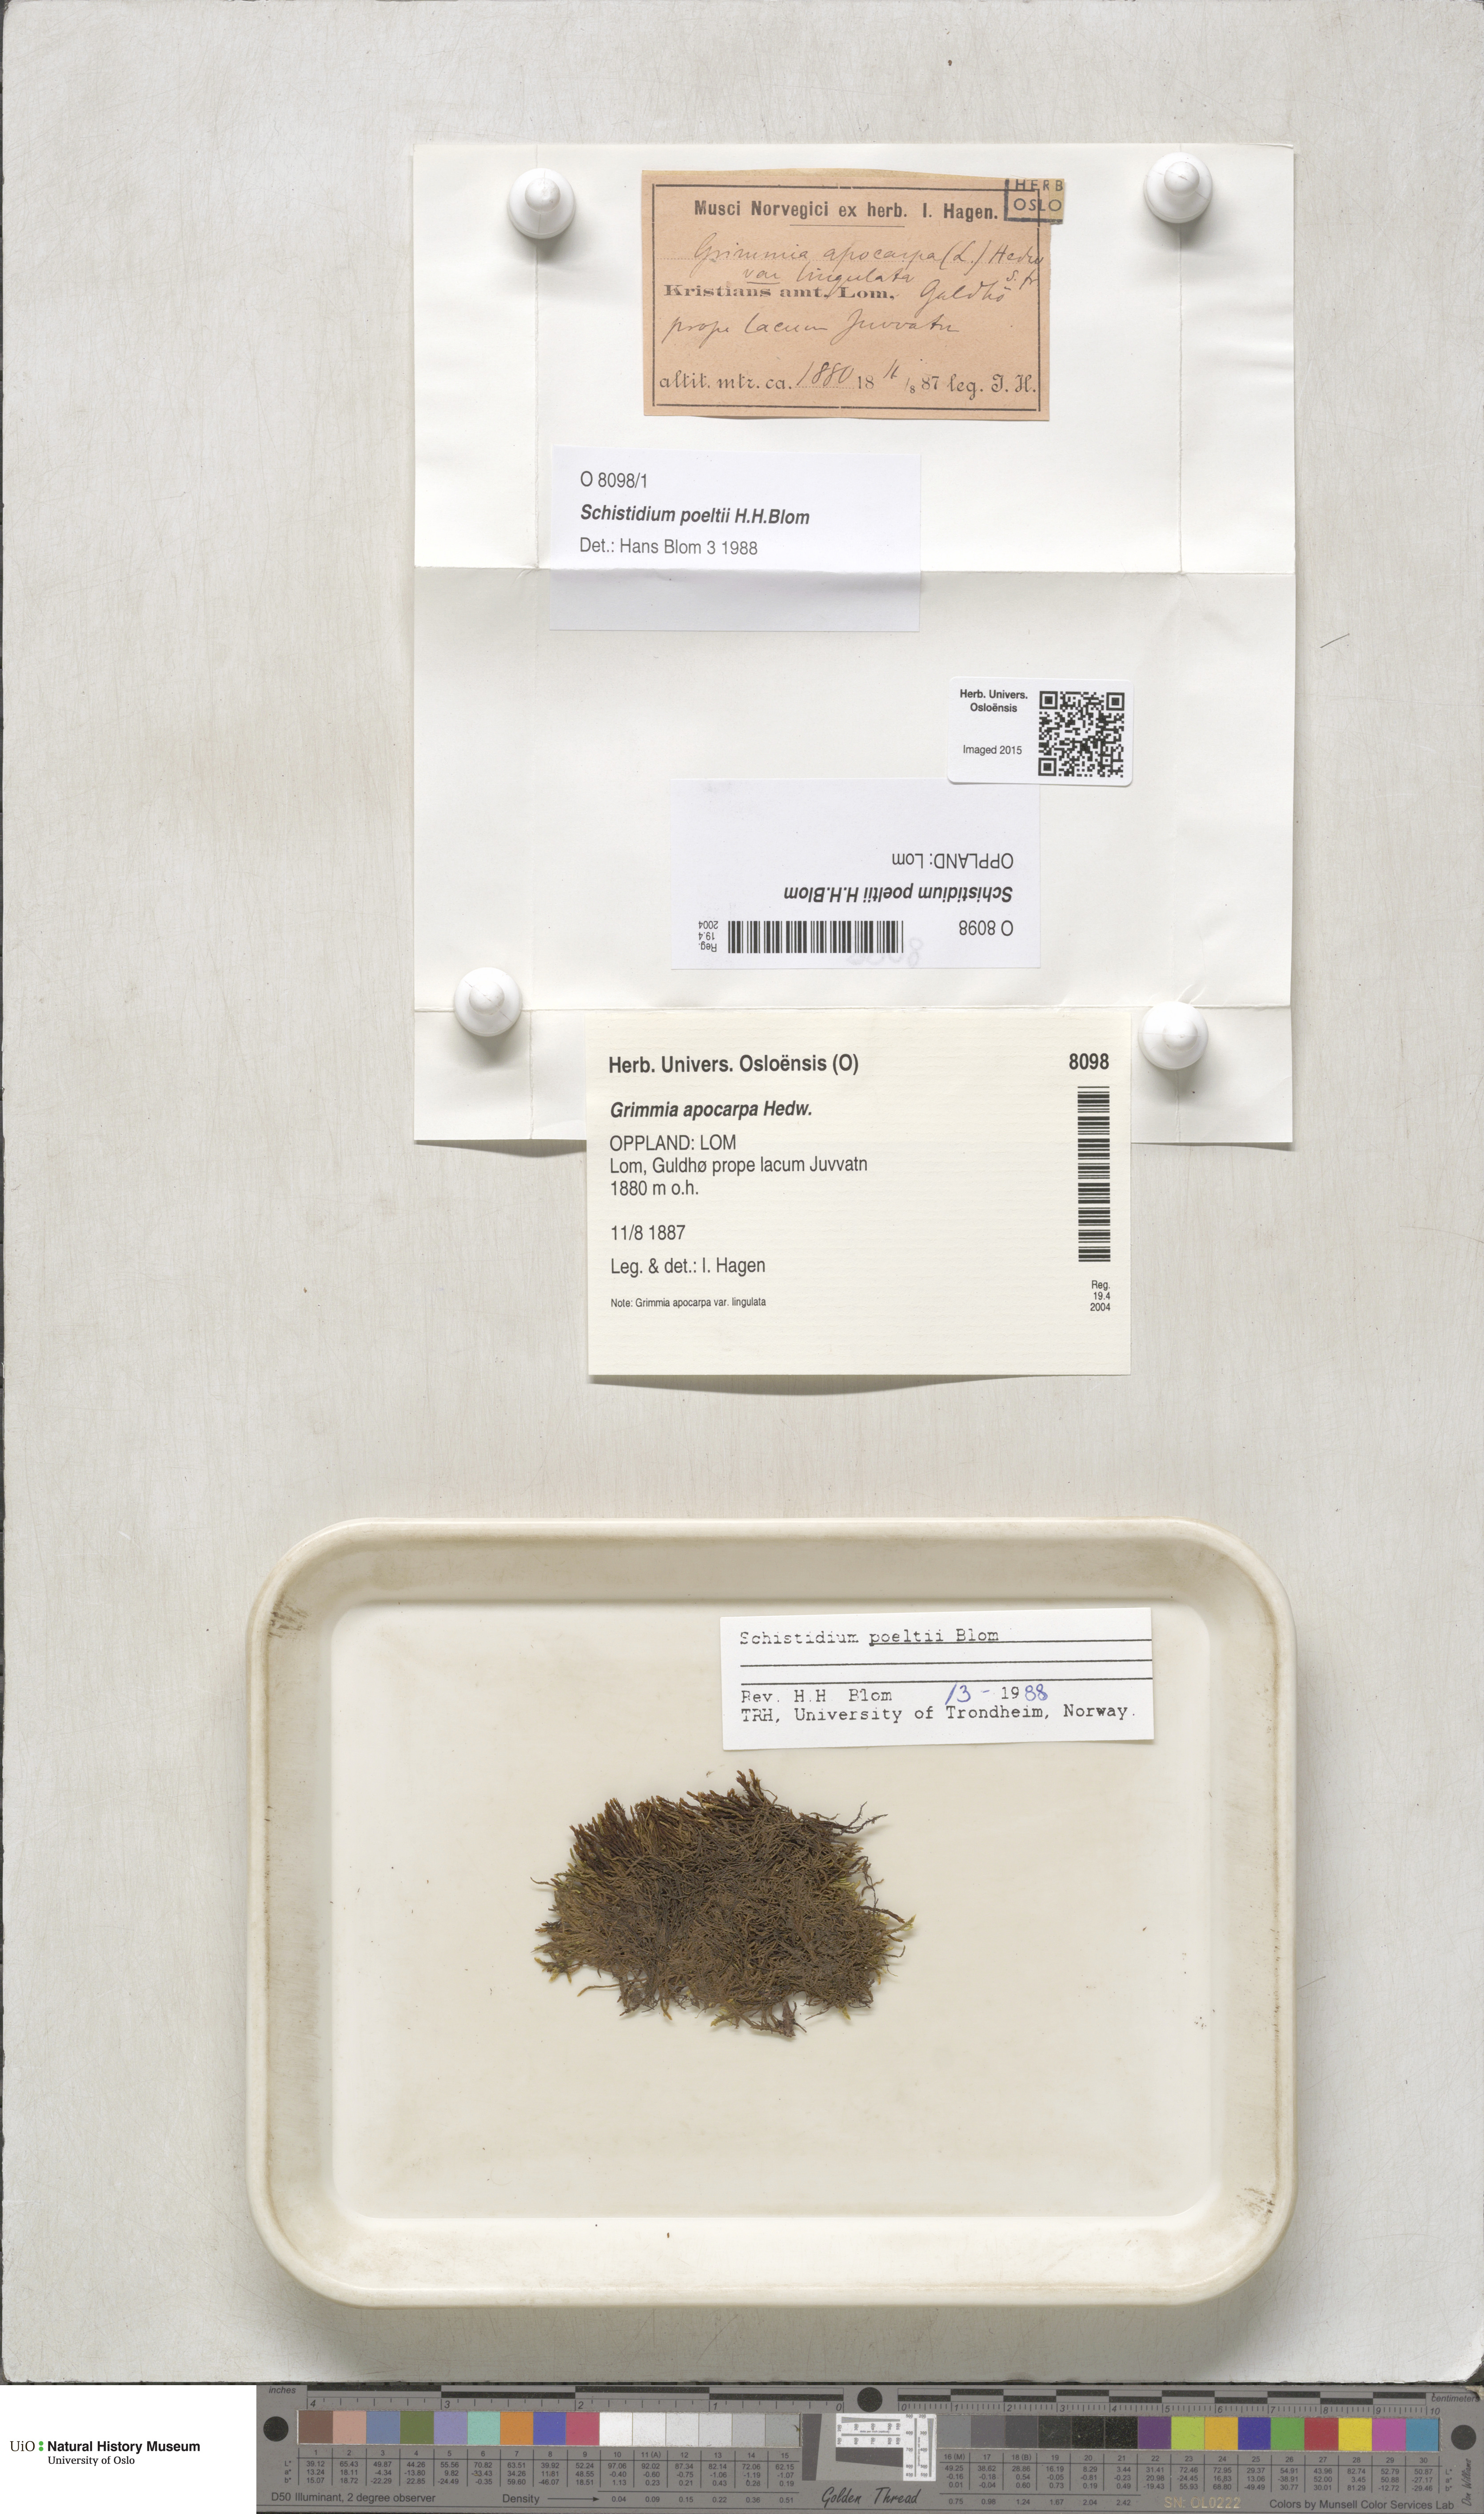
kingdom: Plantae
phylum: Bryophyta
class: Bryopsida
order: Grimmiales
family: Grimmiaceae
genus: Schistidium
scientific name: Schistidium poeltii
